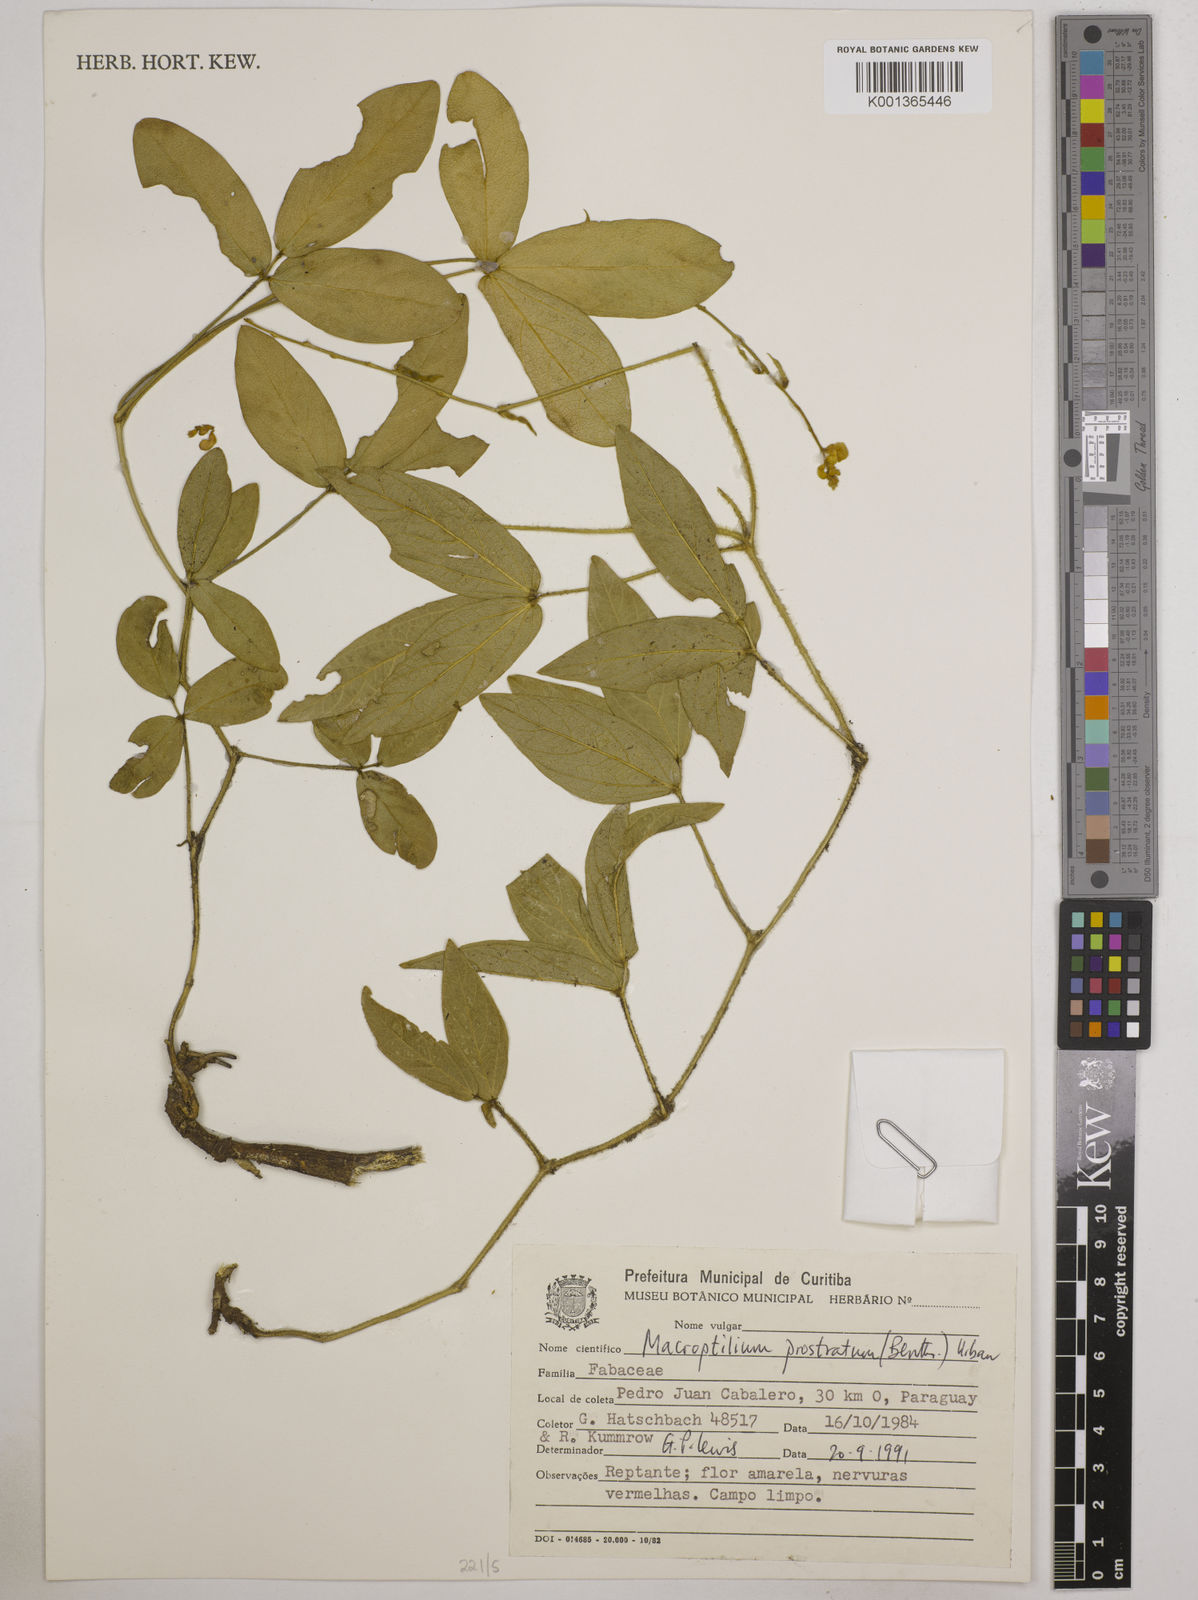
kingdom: Plantae
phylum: Tracheophyta
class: Magnoliopsida
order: Fabales
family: Fabaceae
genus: Macroptilium
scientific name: Macroptilium prostratum
